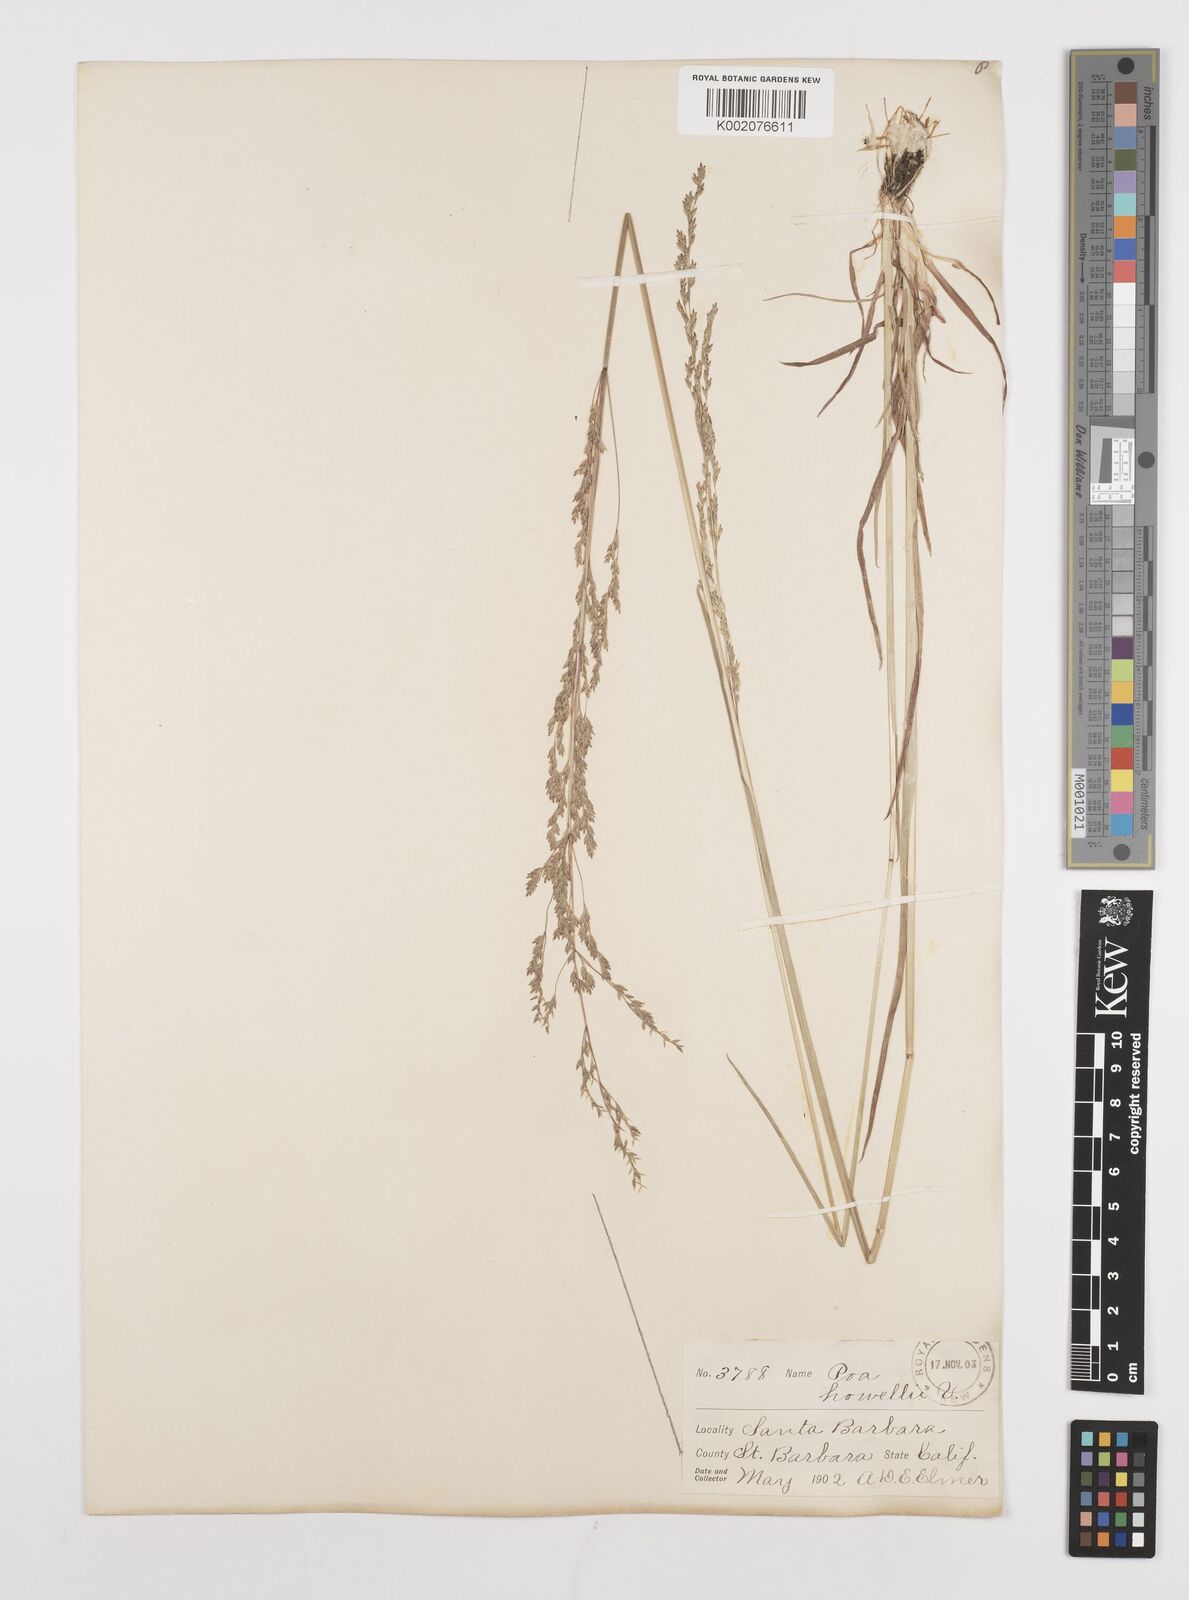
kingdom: Plantae
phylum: Tracheophyta
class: Liliopsida
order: Poales
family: Poaceae
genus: Poa
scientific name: Poa howellii
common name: Howell's bluegrass
